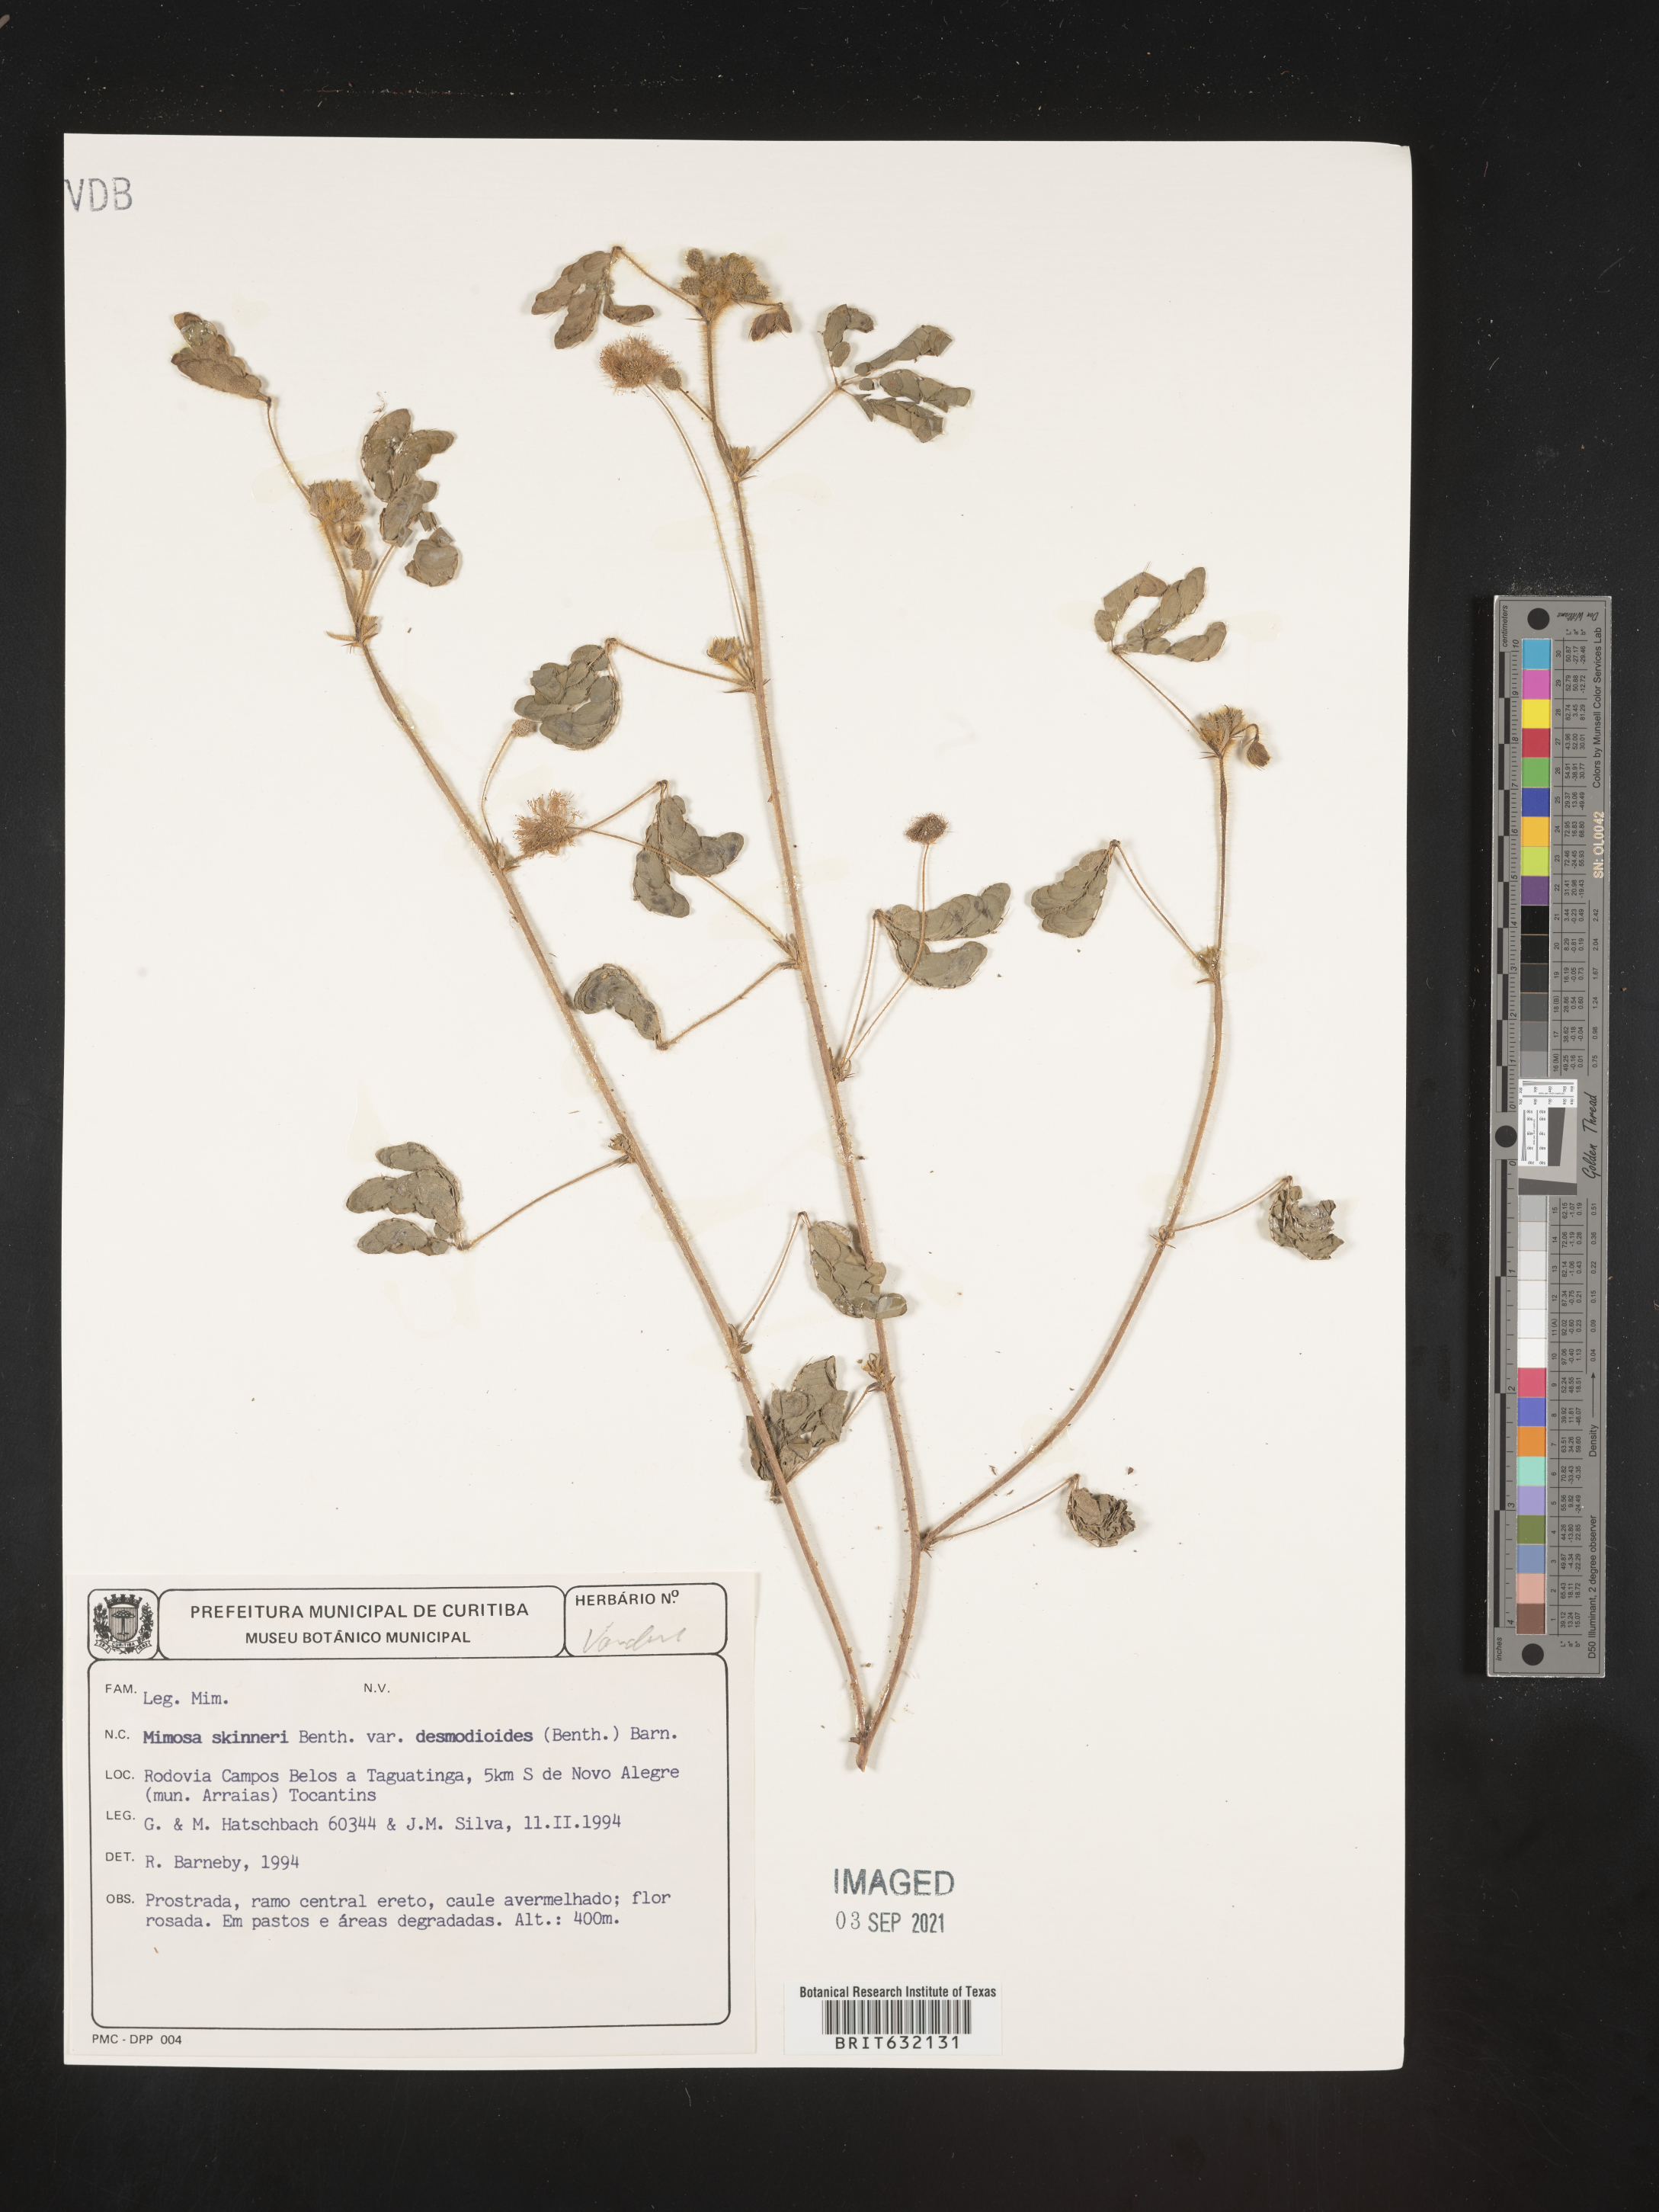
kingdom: Plantae
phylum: Tracheophyta
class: Magnoliopsida
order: Fabales
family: Fabaceae
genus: Mimosa
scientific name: Mimosa
